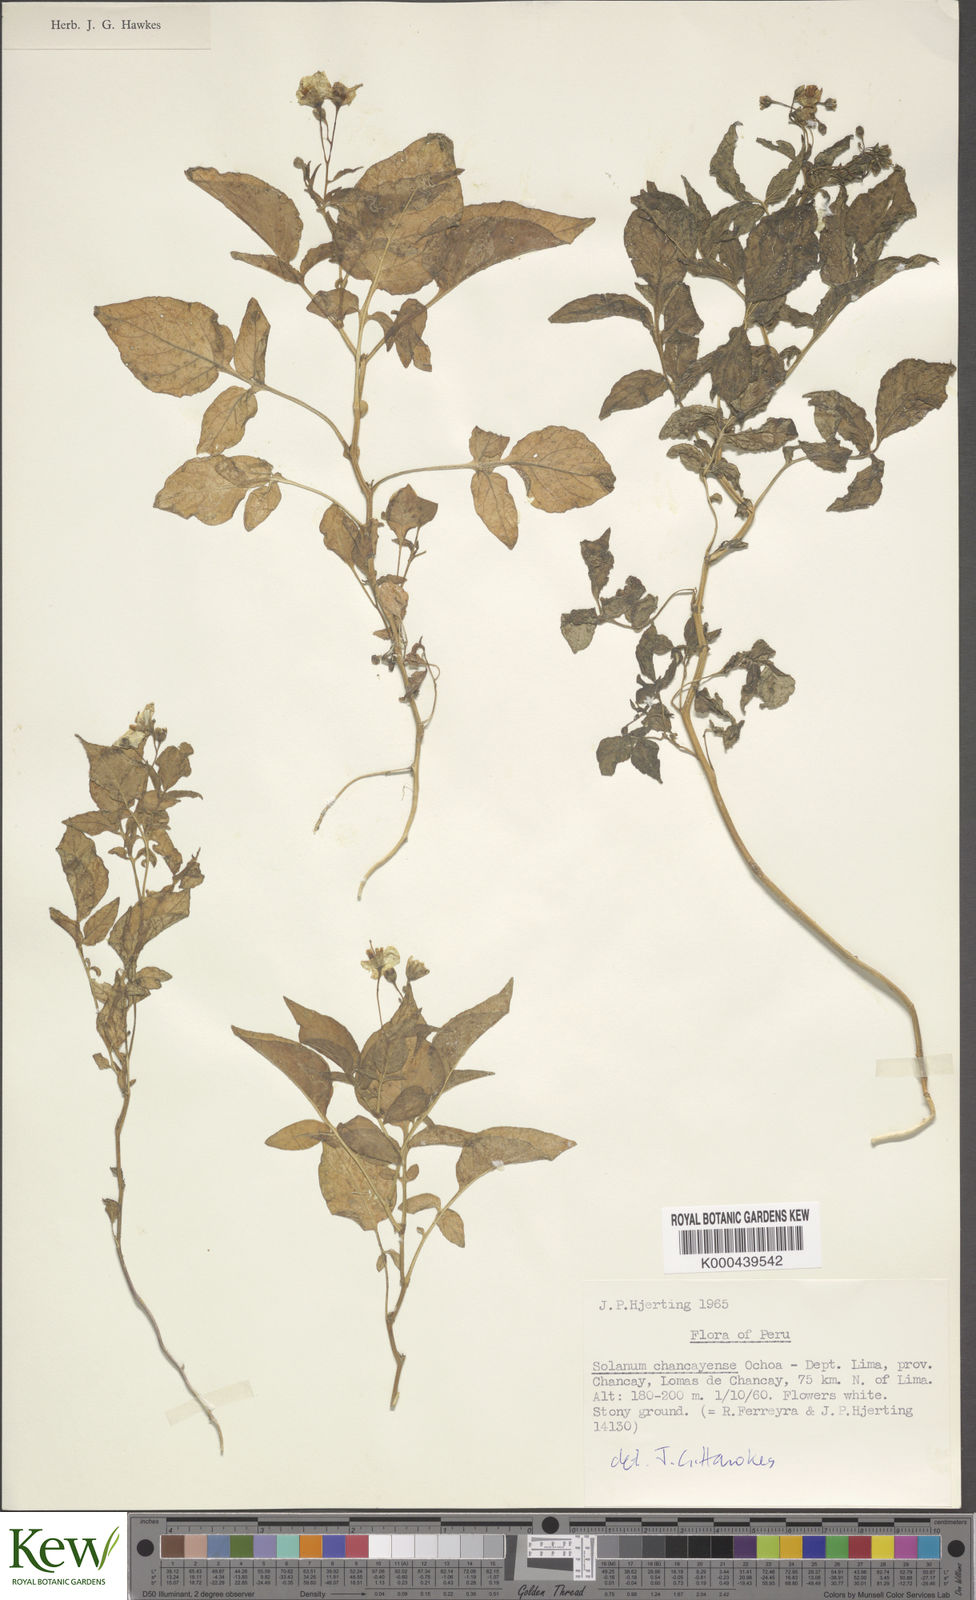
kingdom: Plantae
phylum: Tracheophyta
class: Magnoliopsida
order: Solanales
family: Solanaceae
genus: Solanum
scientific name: Solanum mochiquense
